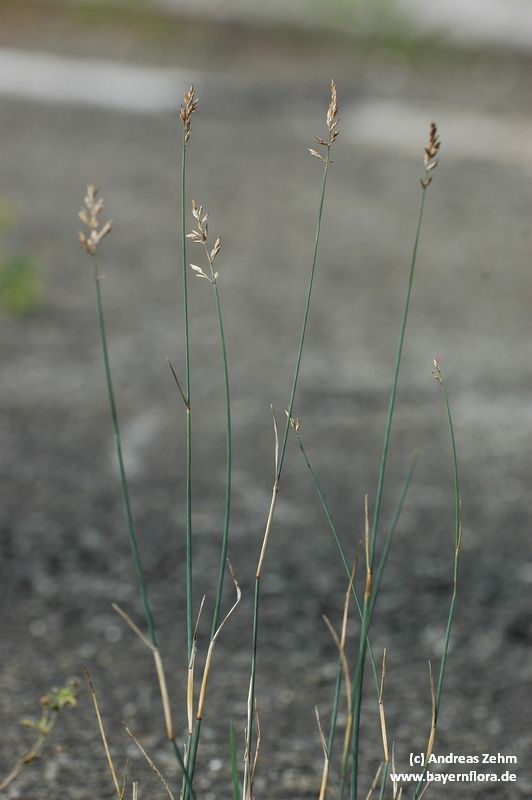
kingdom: Plantae
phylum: Tracheophyta
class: Liliopsida
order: Poales
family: Poaceae
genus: Poa
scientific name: Poa compressa
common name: Canada bluegrass
